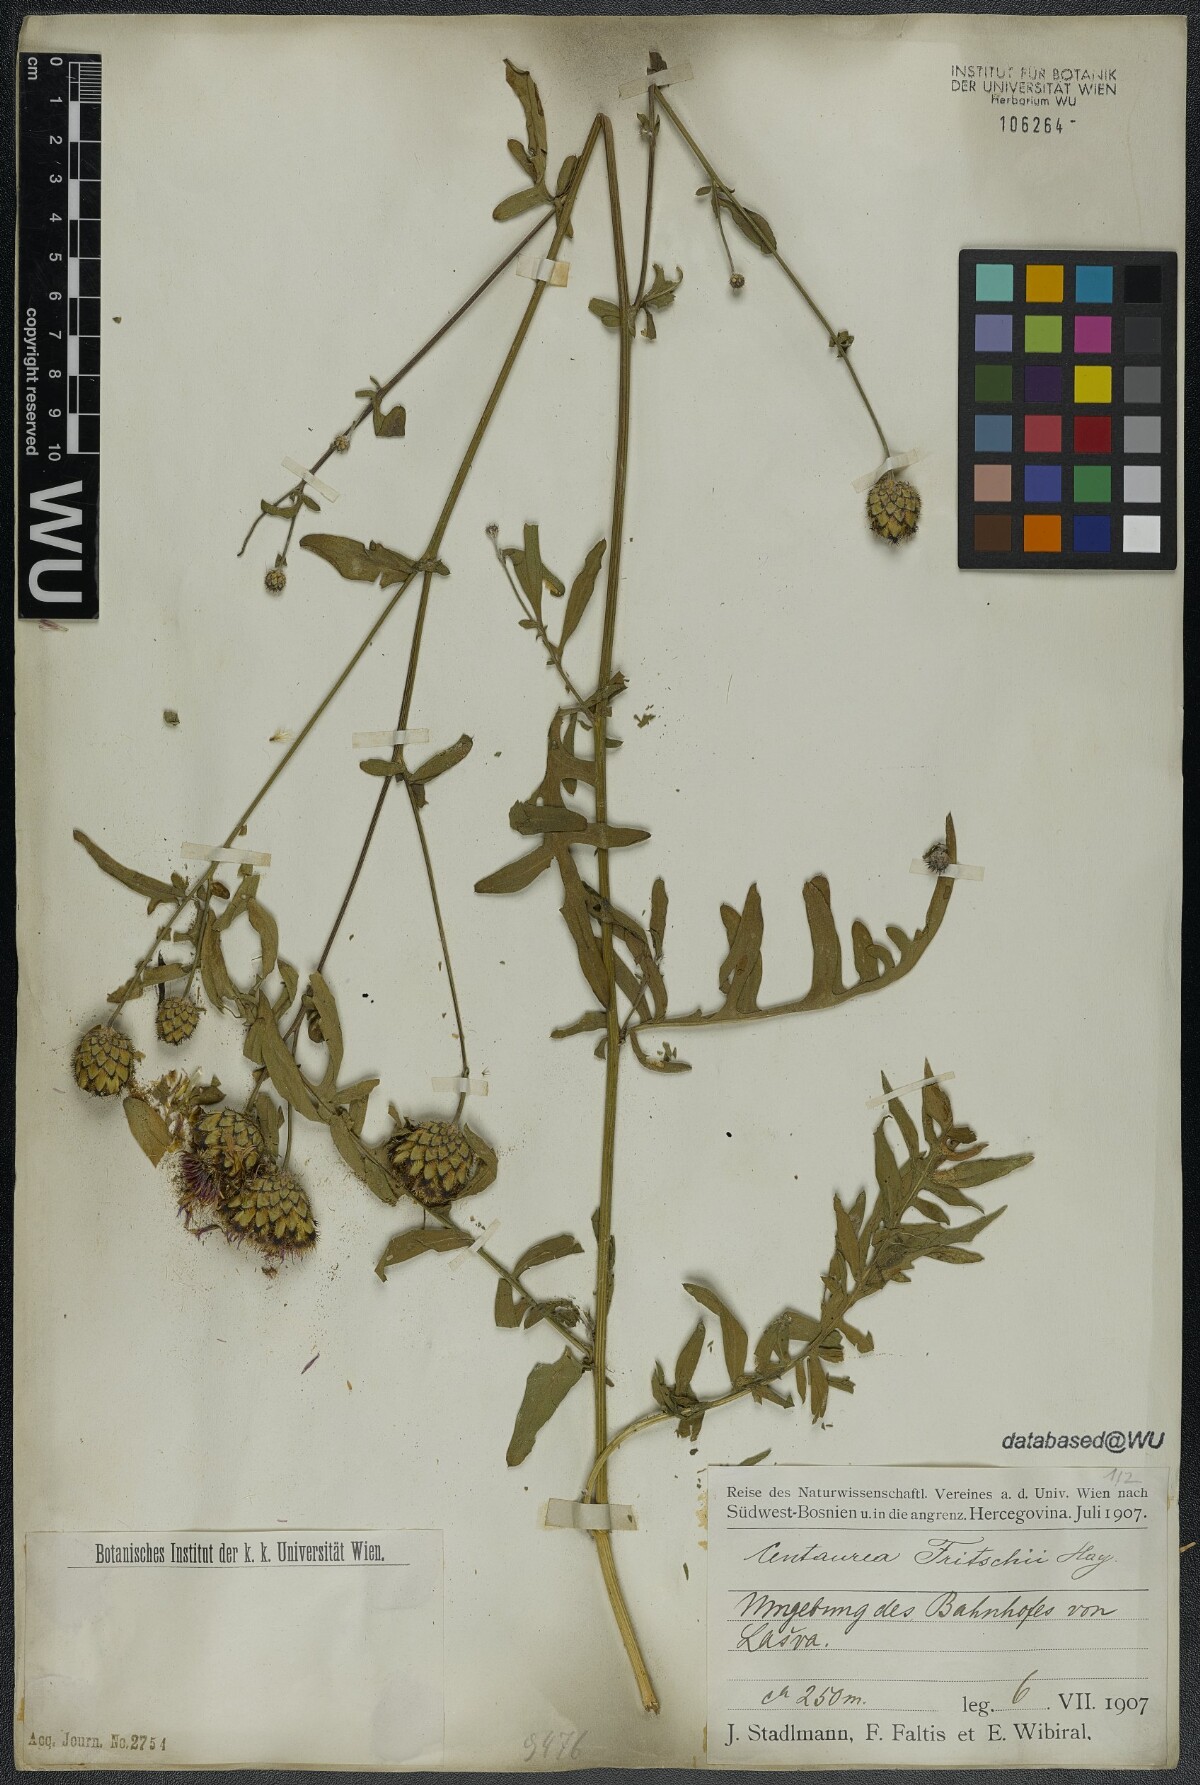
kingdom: Plantae
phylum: Tracheophyta
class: Magnoliopsida
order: Asterales
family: Asteraceae
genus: Centaurea
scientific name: Centaurea scabiosa
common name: Greater knapweed
